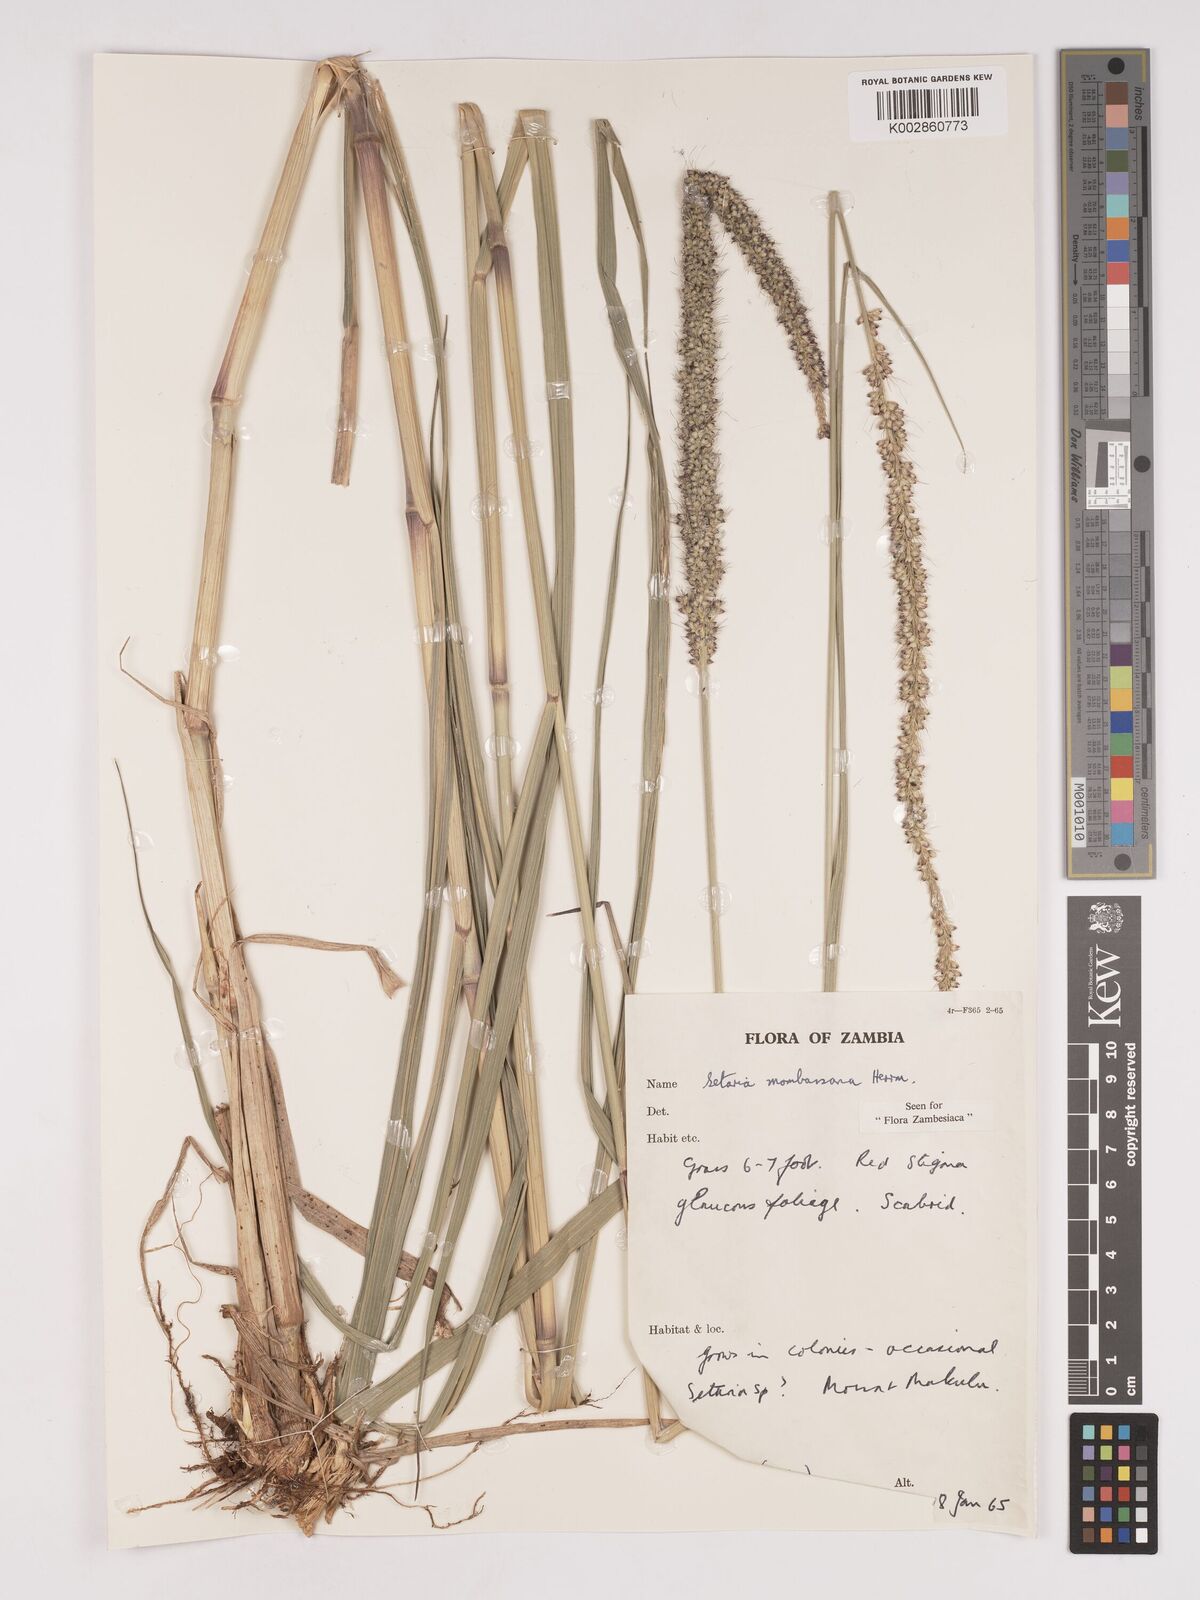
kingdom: Plantae
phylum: Tracheophyta
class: Liliopsida
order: Poales
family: Poaceae
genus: Setaria
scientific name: Setaria incrassata
